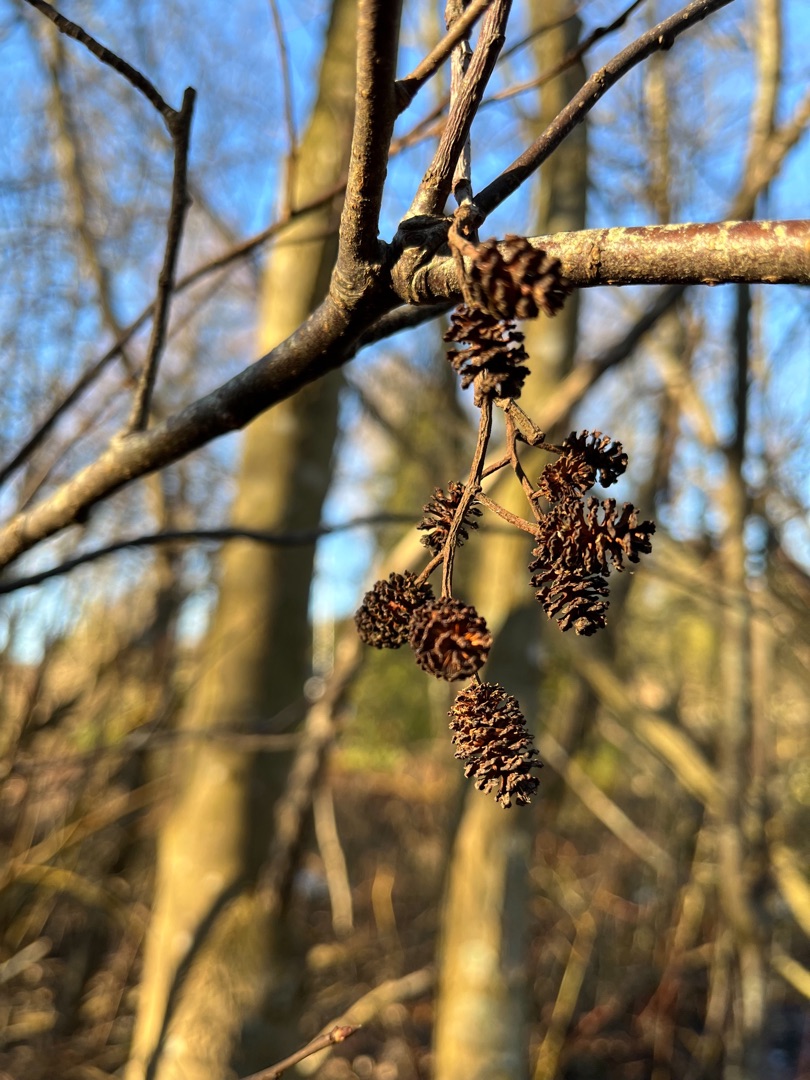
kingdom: Plantae
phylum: Tracheophyta
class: Magnoliopsida
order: Fagales
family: Betulaceae
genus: Alnus
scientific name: Alnus glutinosa
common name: Rød-el
